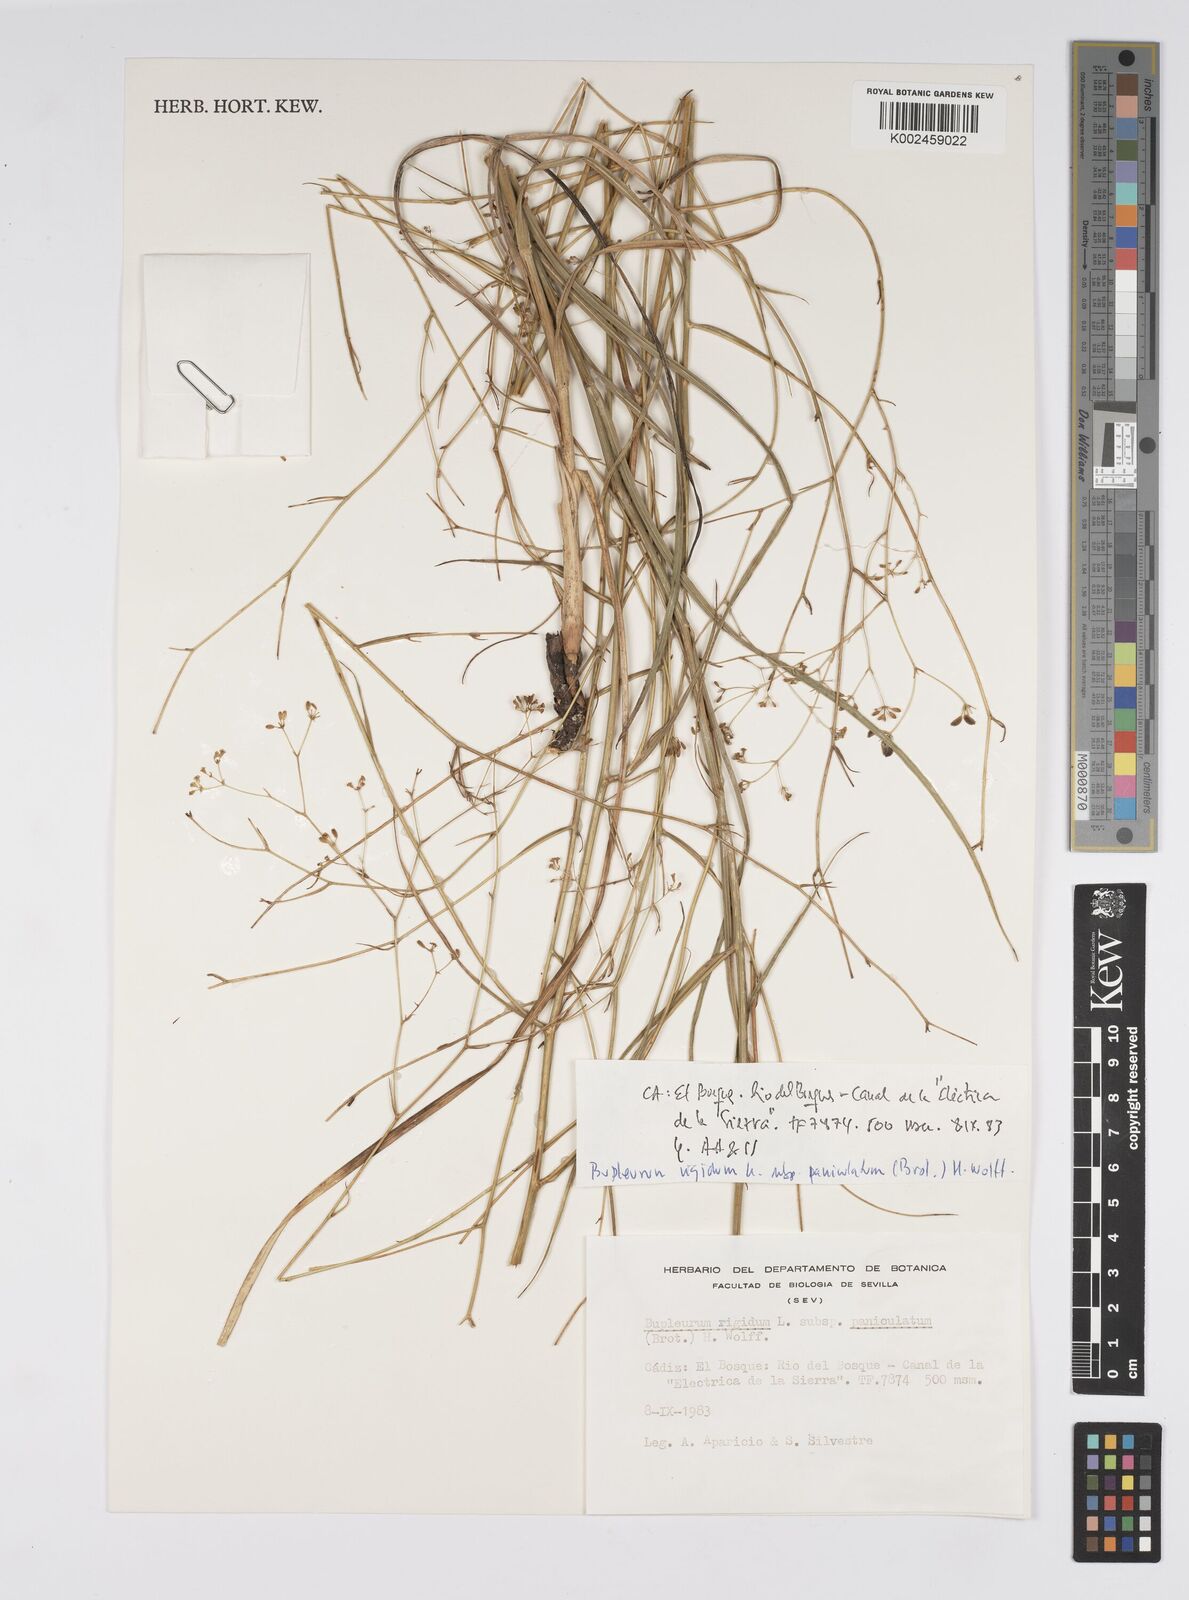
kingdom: Plantae
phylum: Tracheophyta
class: Magnoliopsida
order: Apiales
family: Apiaceae
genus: Bupleurum
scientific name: Bupleurum rigidum
